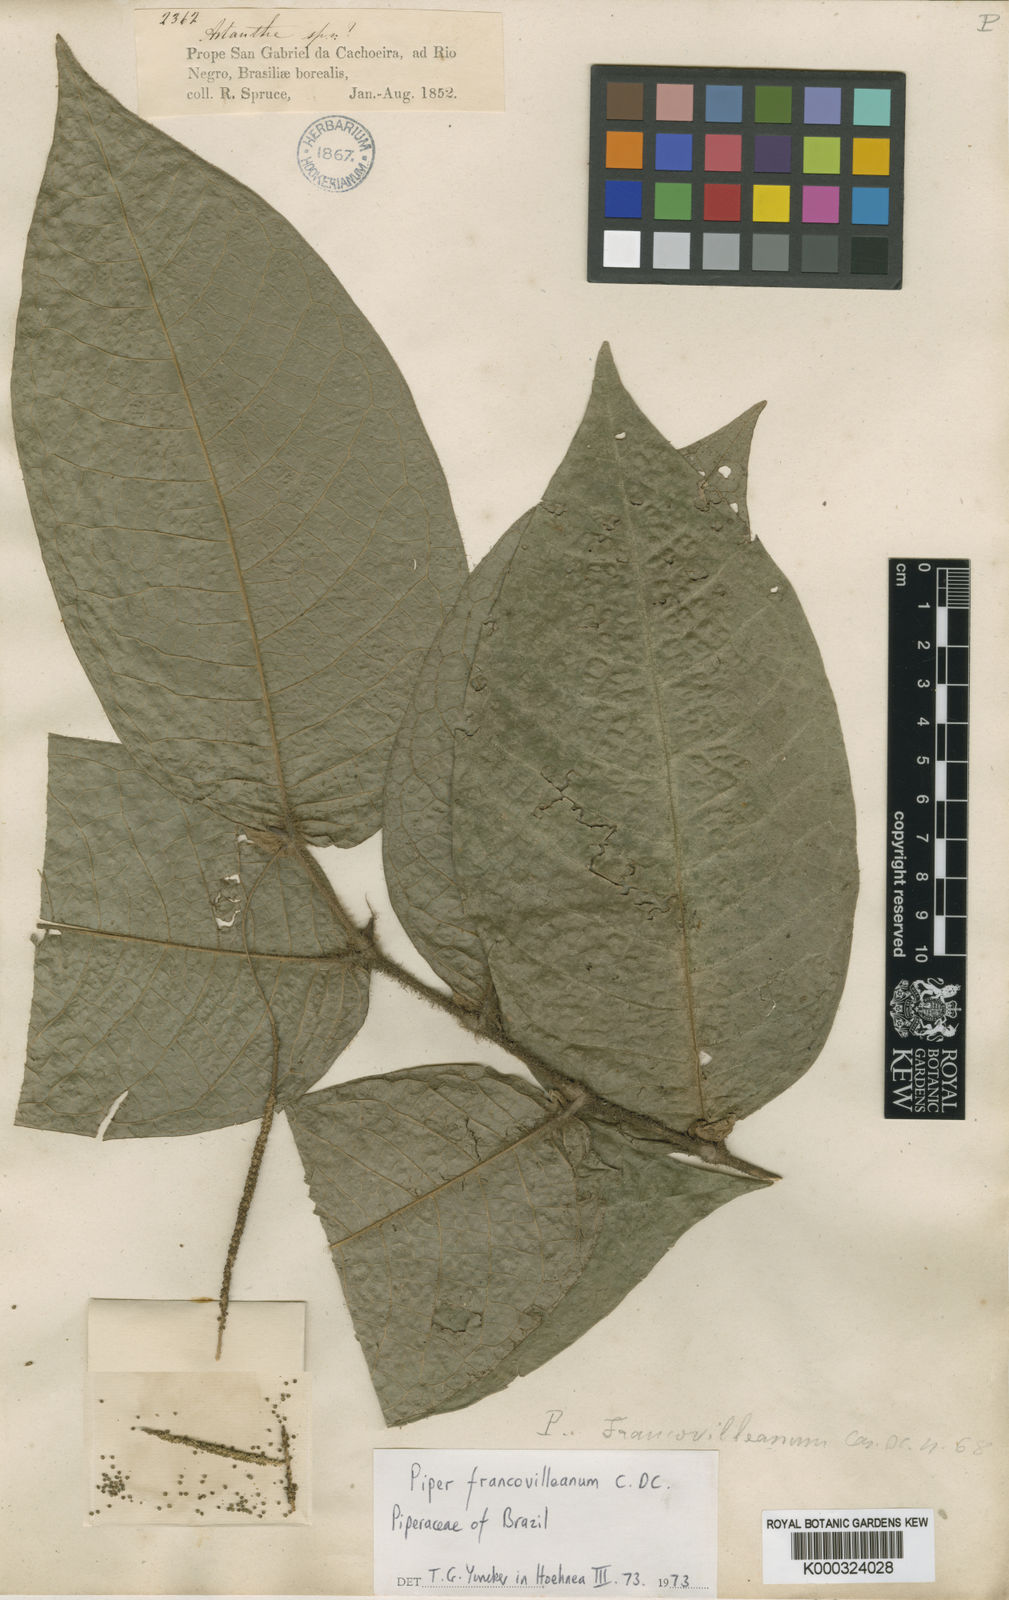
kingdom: Plantae
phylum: Tracheophyta
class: Magnoliopsida
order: Piperales
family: Piperaceae
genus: Piper
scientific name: Piper francovilleanum
